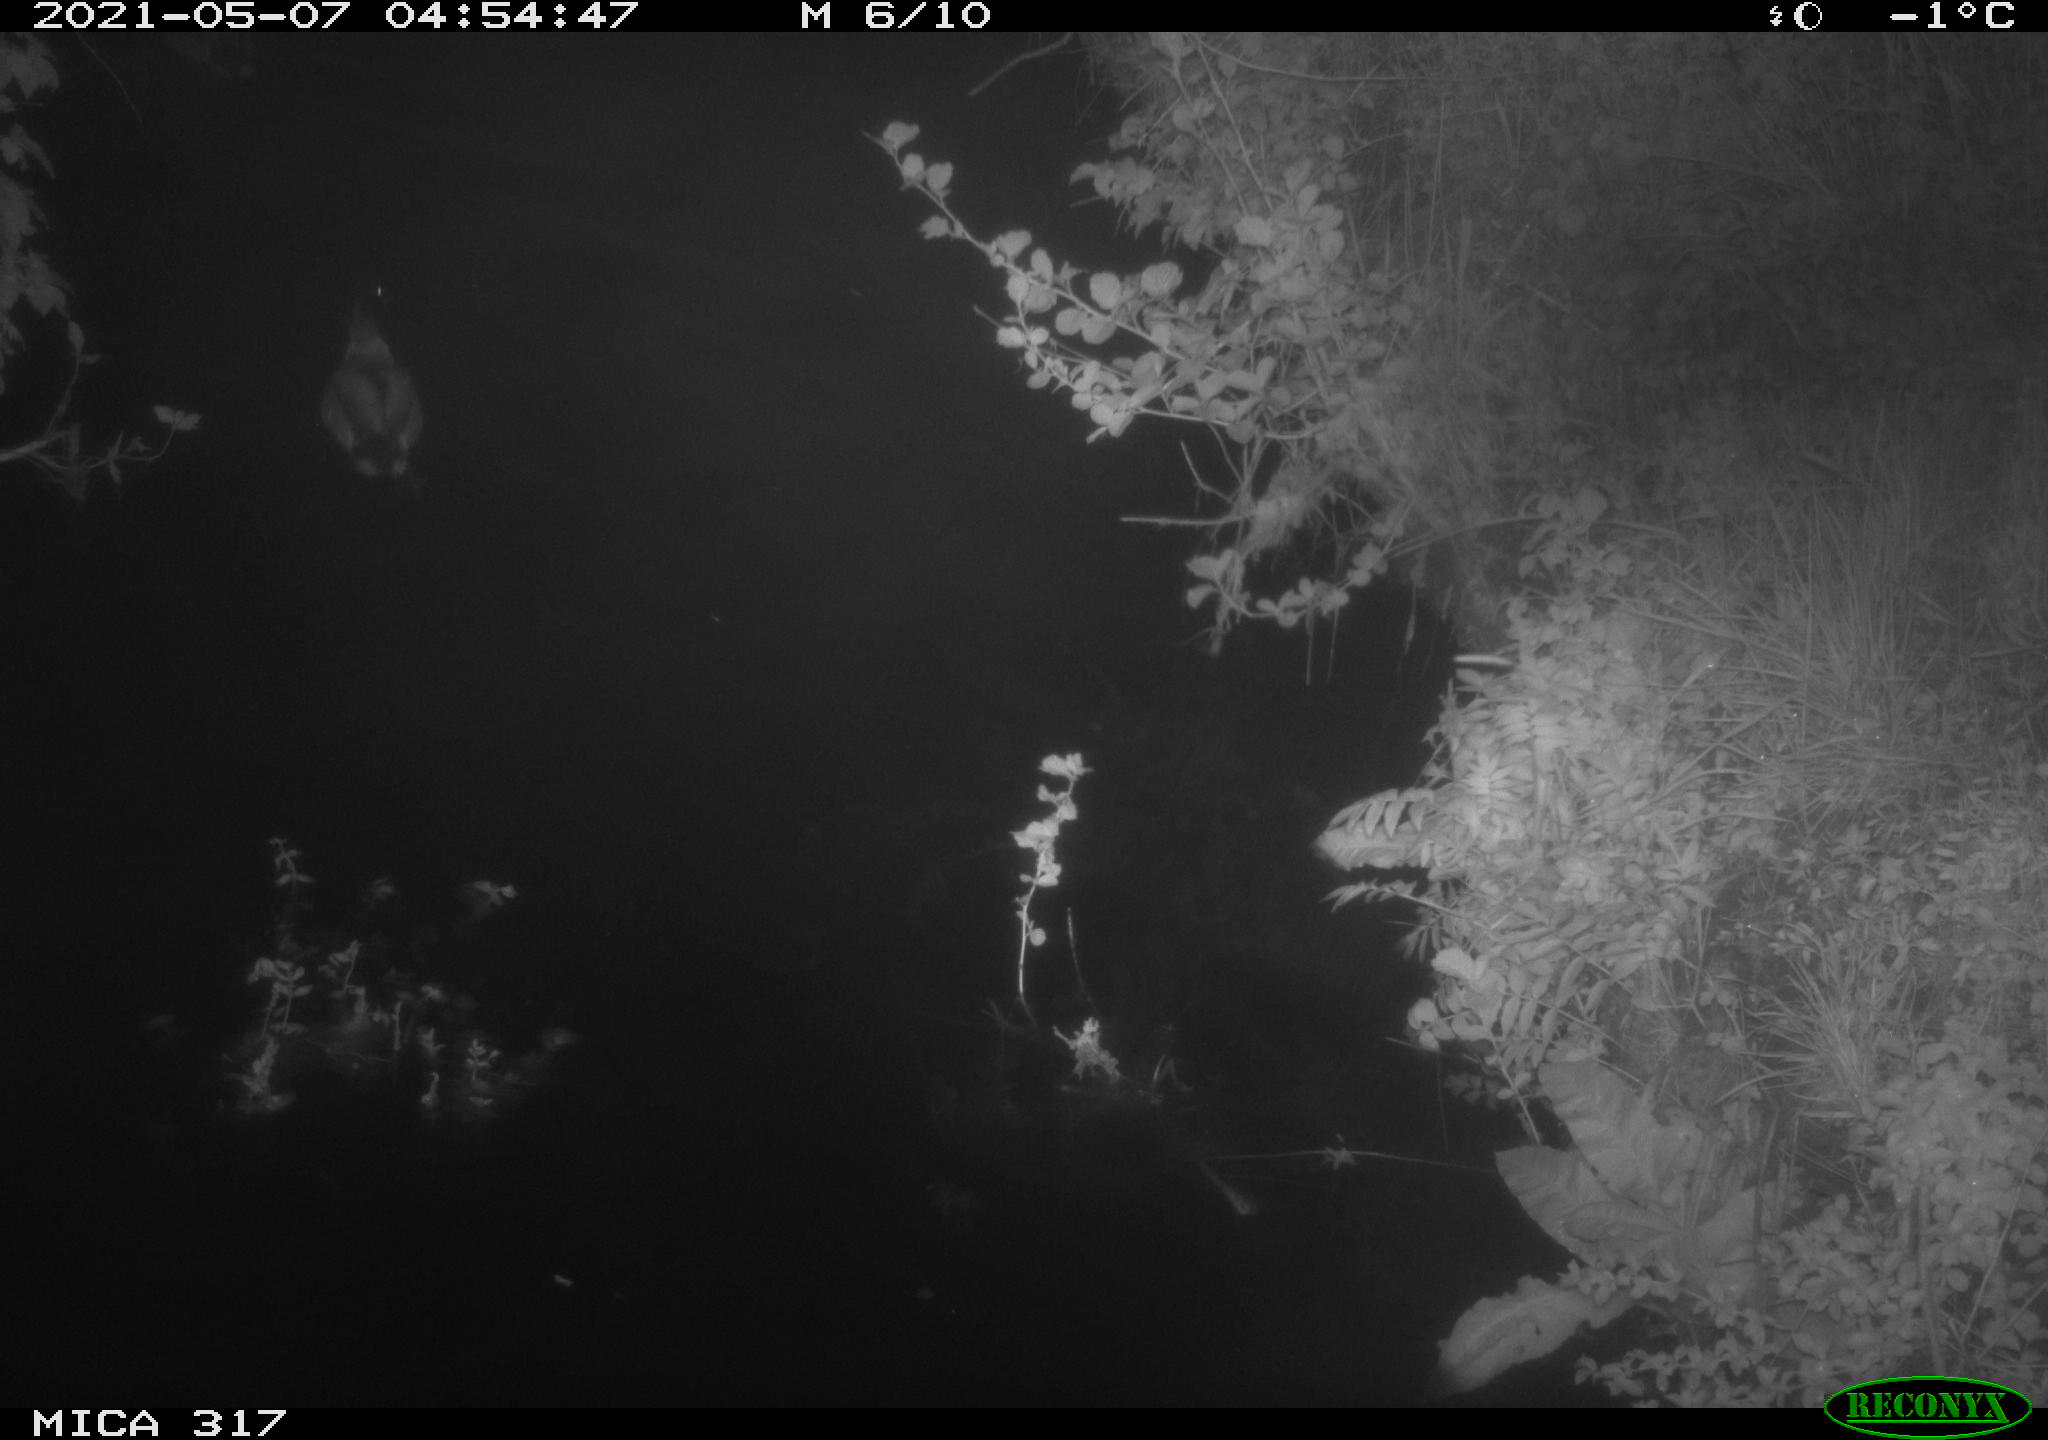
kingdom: Animalia
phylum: Chordata
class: Aves
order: Anseriformes
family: Anatidae
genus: Anas
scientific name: Anas
